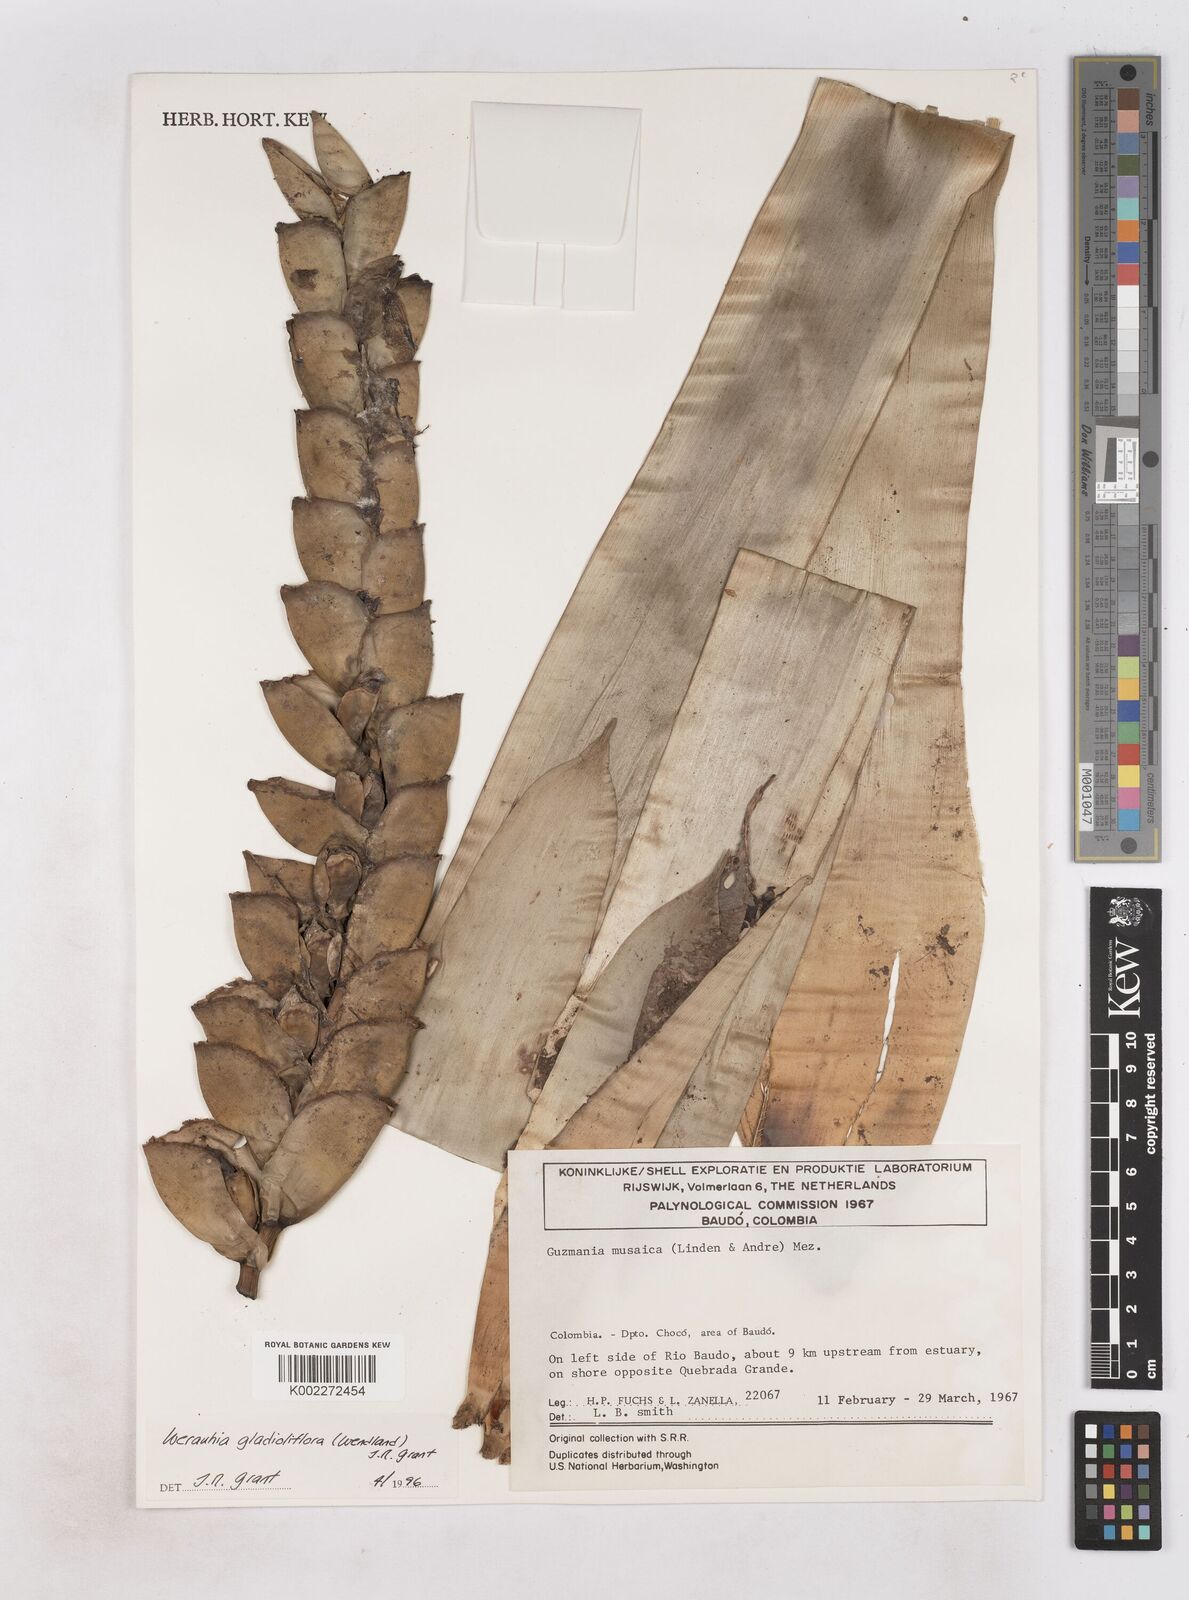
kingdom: Plantae
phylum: Tracheophyta
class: Liliopsida
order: Poales
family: Bromeliaceae
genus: Guzmania
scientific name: Guzmania musaica
